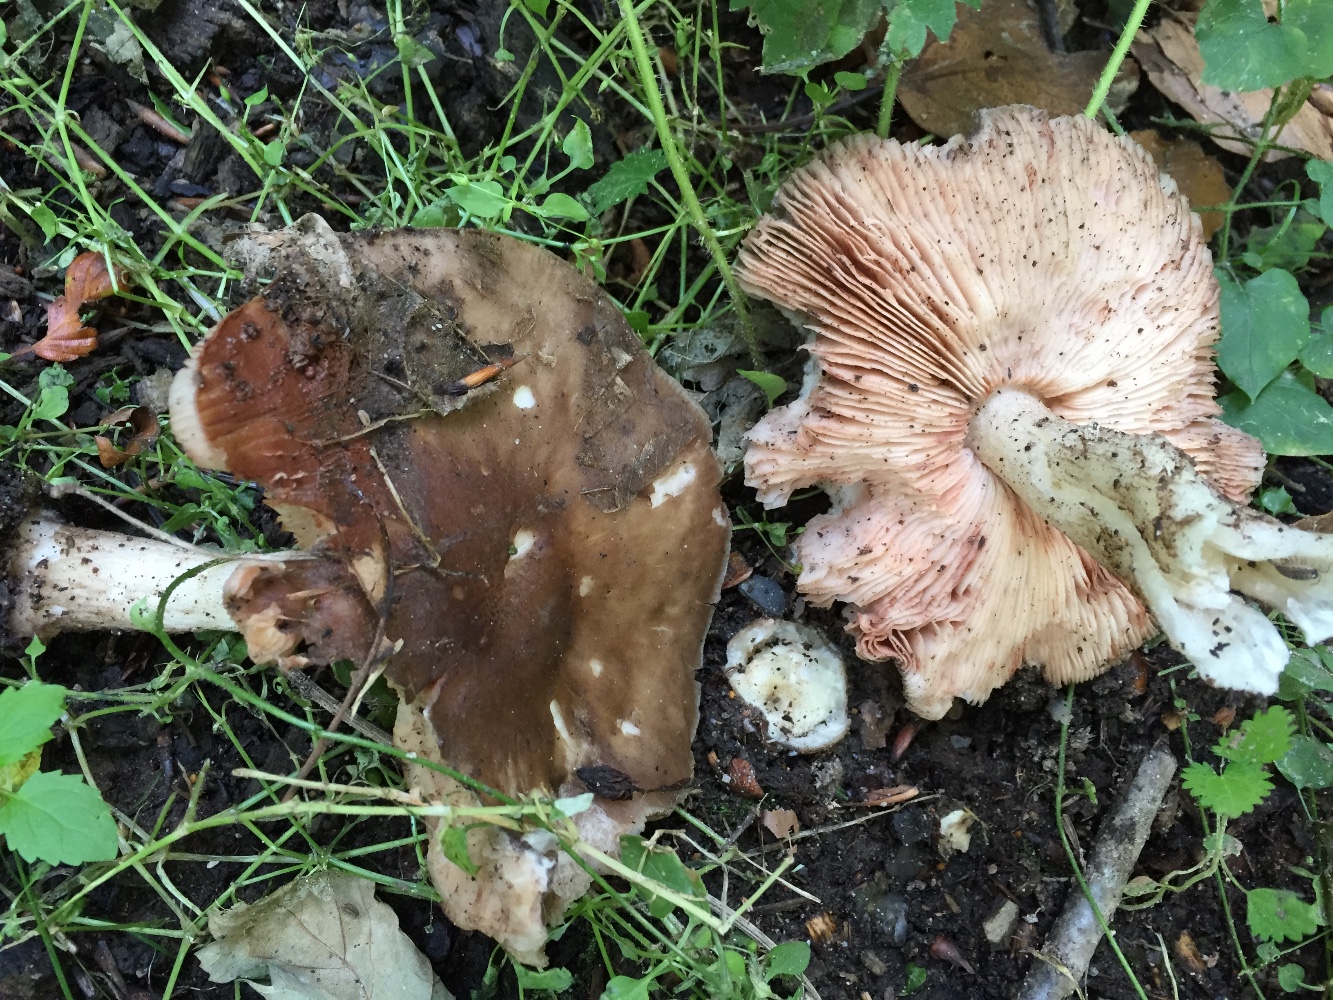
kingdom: Fungi
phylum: Basidiomycota
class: Agaricomycetes
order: Agaricales
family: Pluteaceae
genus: Pluteus
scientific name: Pluteus cervinus
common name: sodfarvet skærmhat
